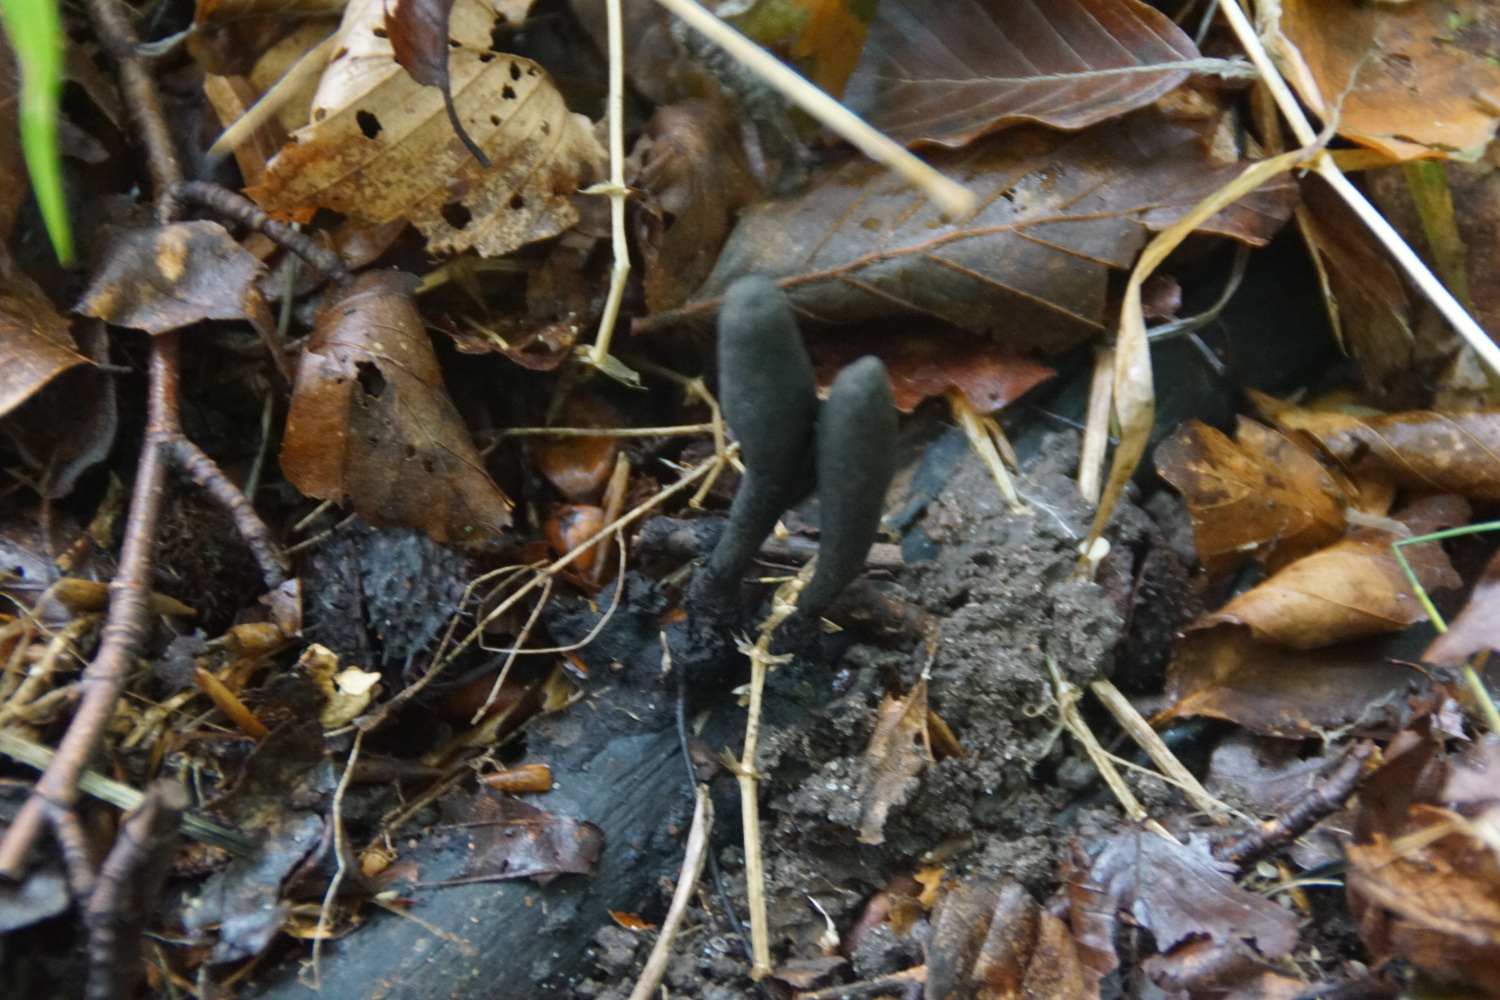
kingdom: Fungi
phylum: Ascomycota
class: Sordariomycetes
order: Xylariales
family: Xylariaceae
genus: Xylaria
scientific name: Xylaria longipes
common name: slank stødsvamp
